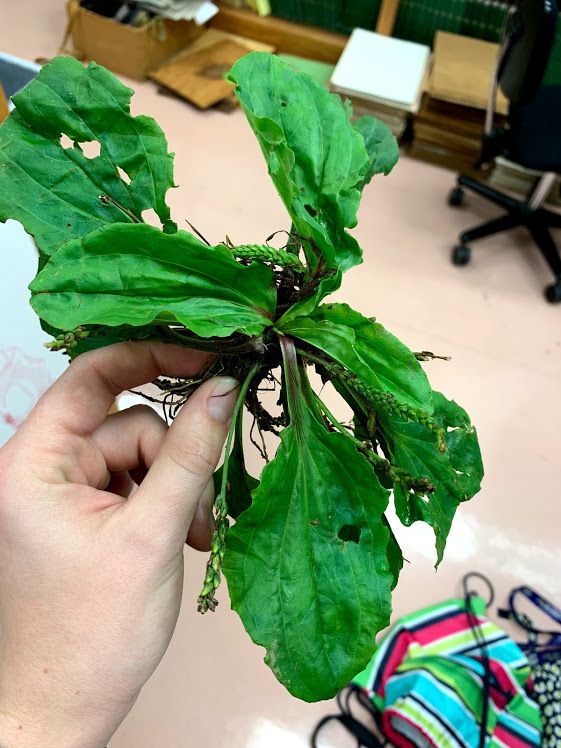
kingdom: Plantae
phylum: Tracheophyta
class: Magnoliopsida
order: Lamiales
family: Plantaginaceae
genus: Plantago
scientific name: Plantago rugelii
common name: American Plantain
